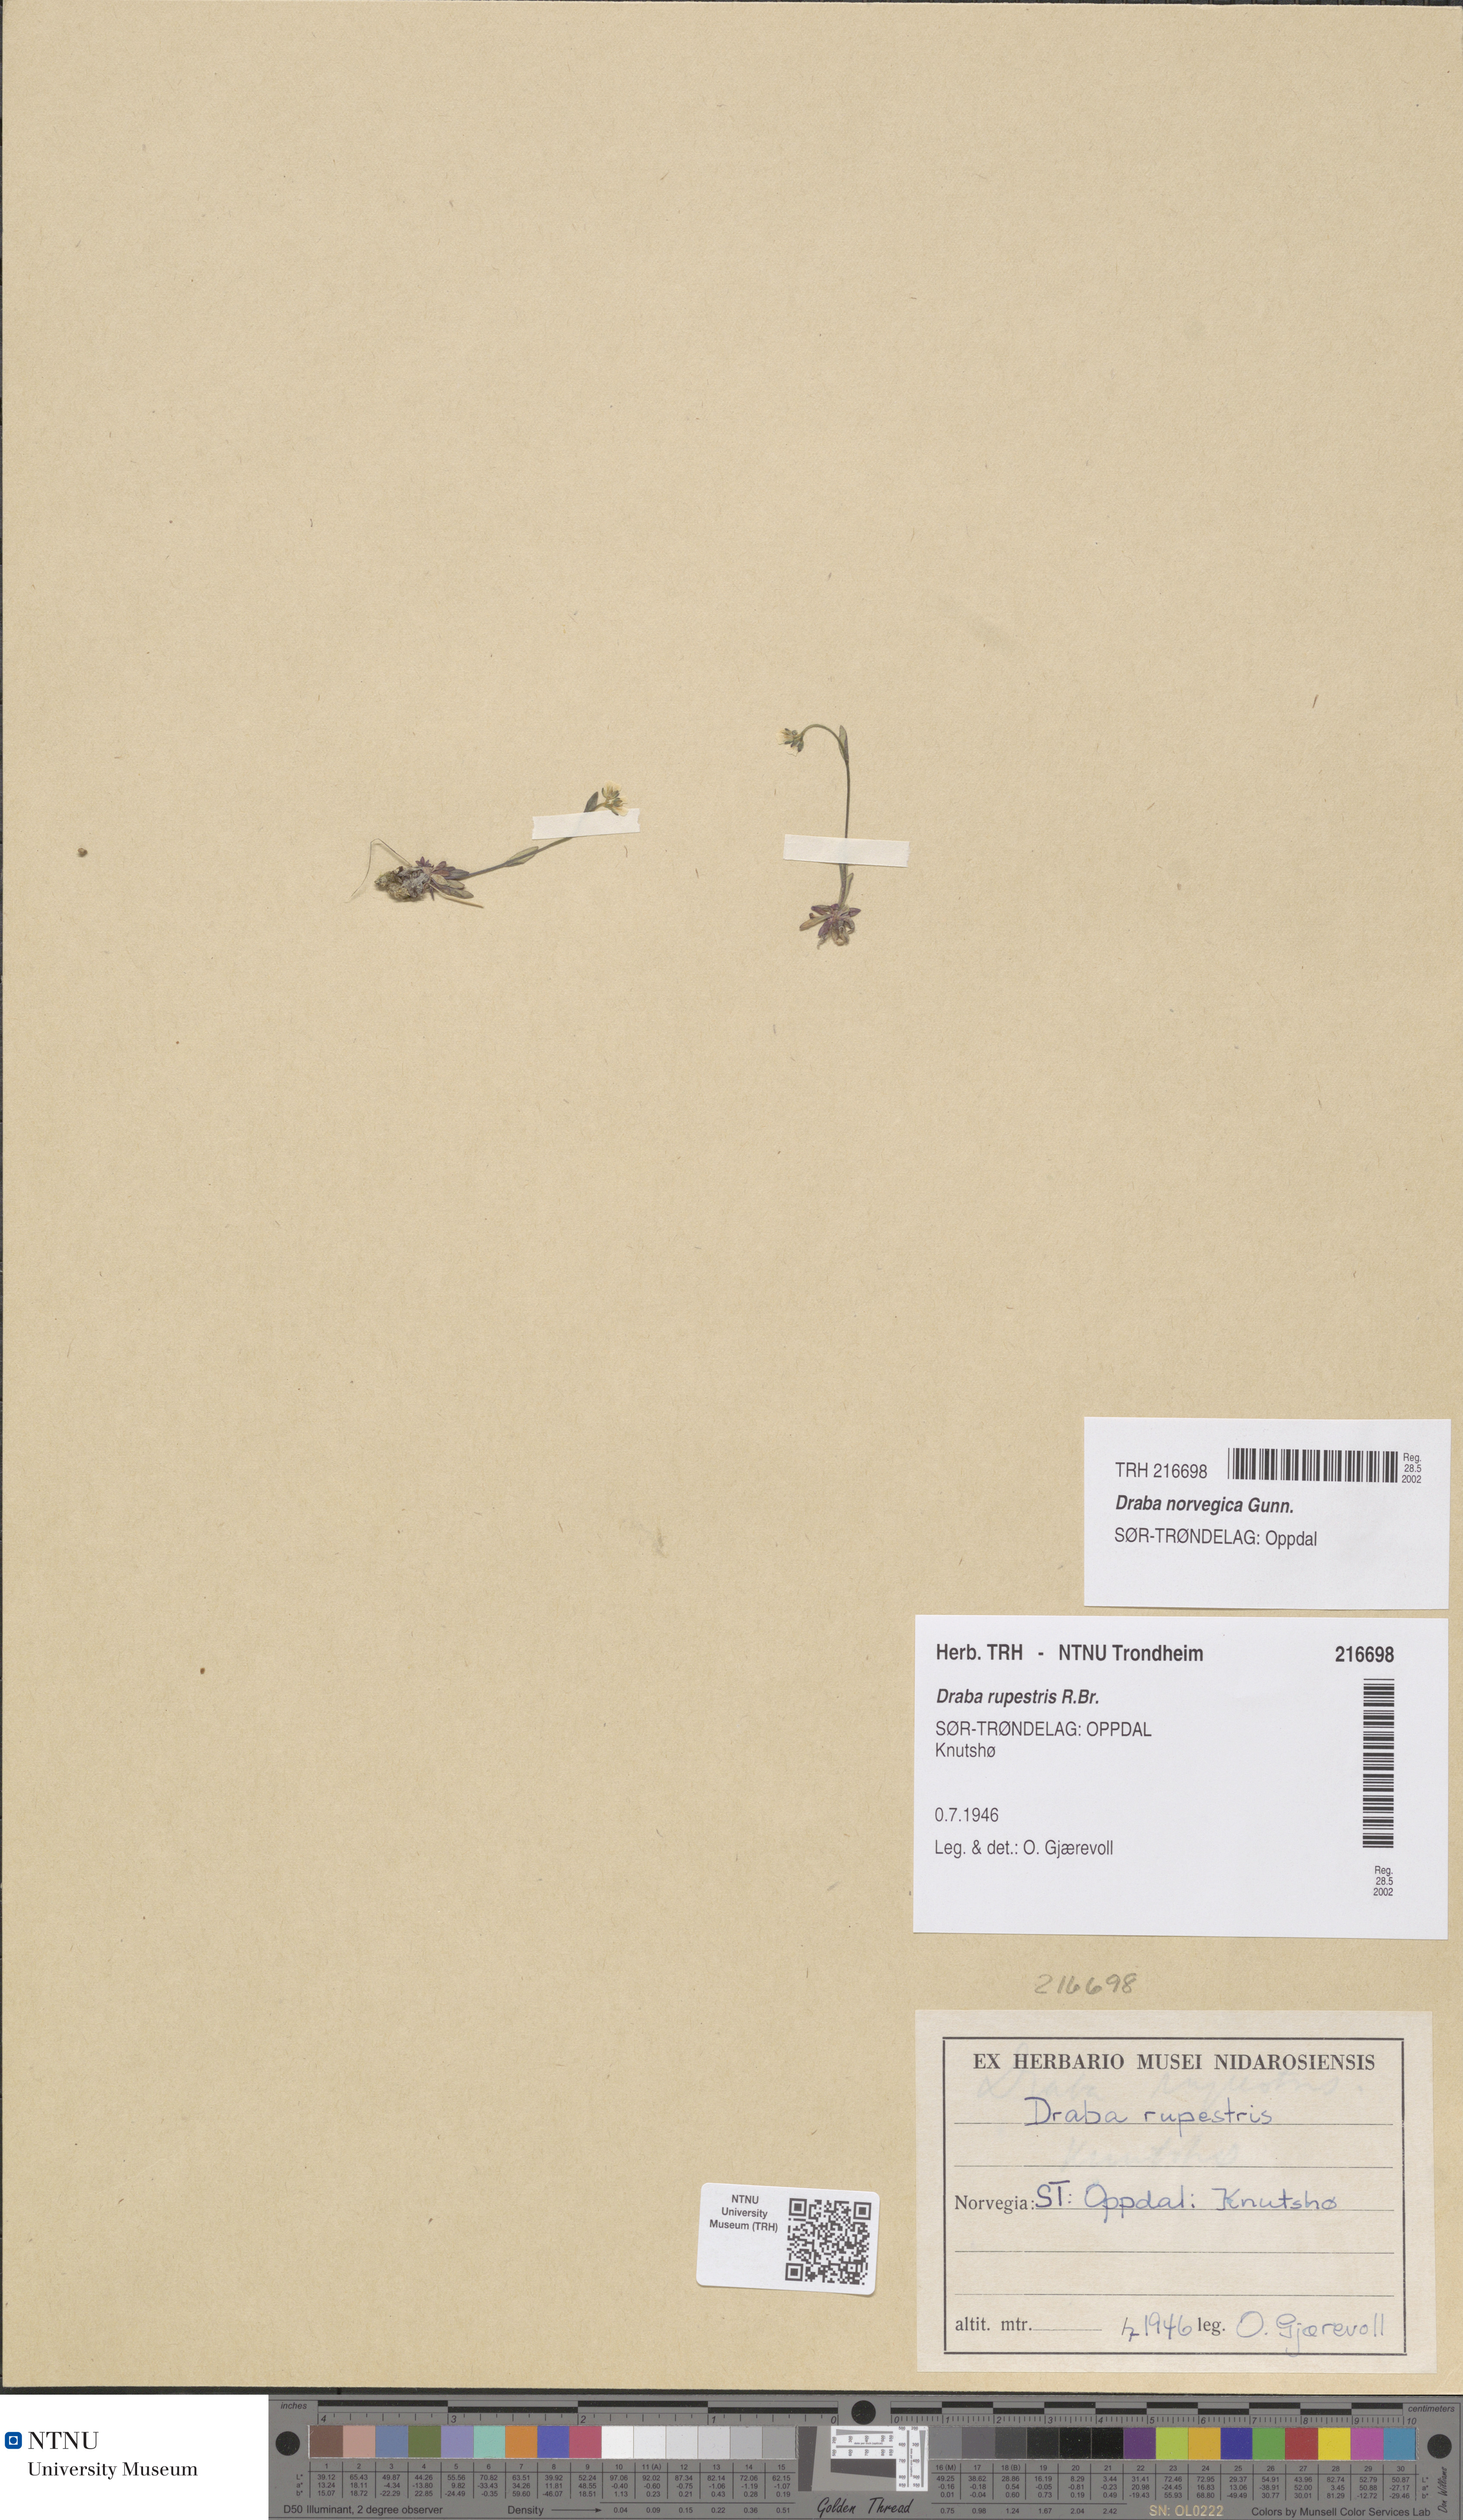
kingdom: Plantae
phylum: Tracheophyta
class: Magnoliopsida
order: Brassicales
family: Brassicaceae
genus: Draba
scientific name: Draba norvegica
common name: Rock whitlowgrass
